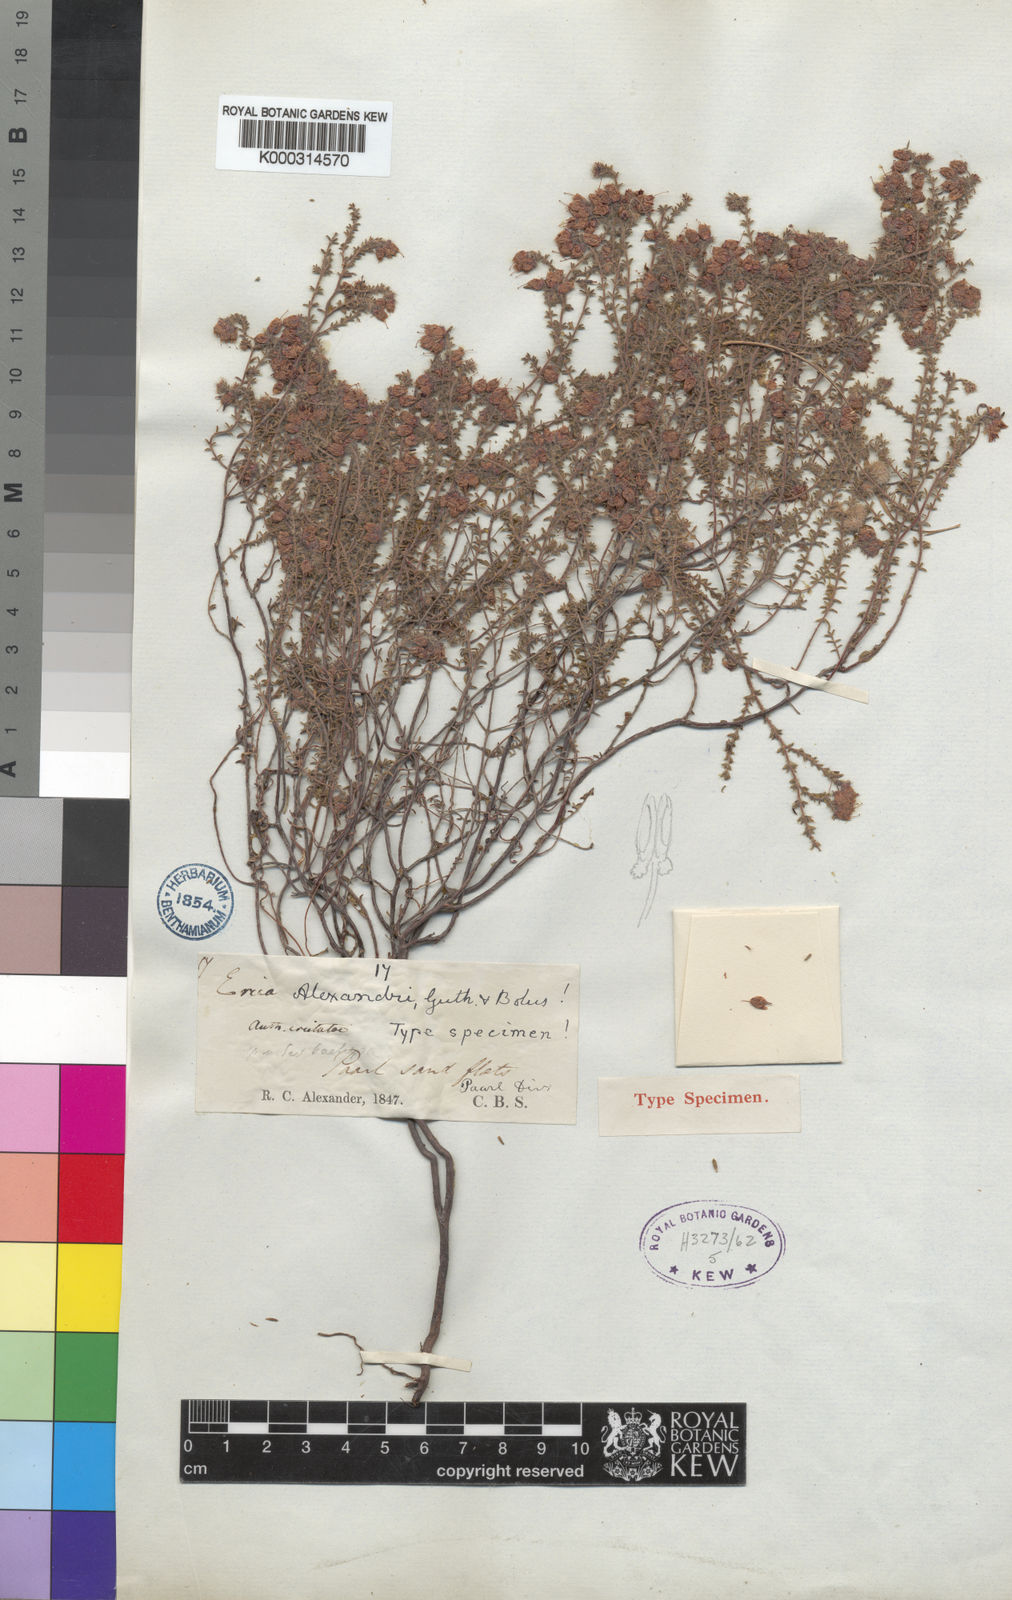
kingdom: Plantae
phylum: Tracheophyta
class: Magnoliopsida
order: Ericales
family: Ericaceae
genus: Erica
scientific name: Erica alexandri
